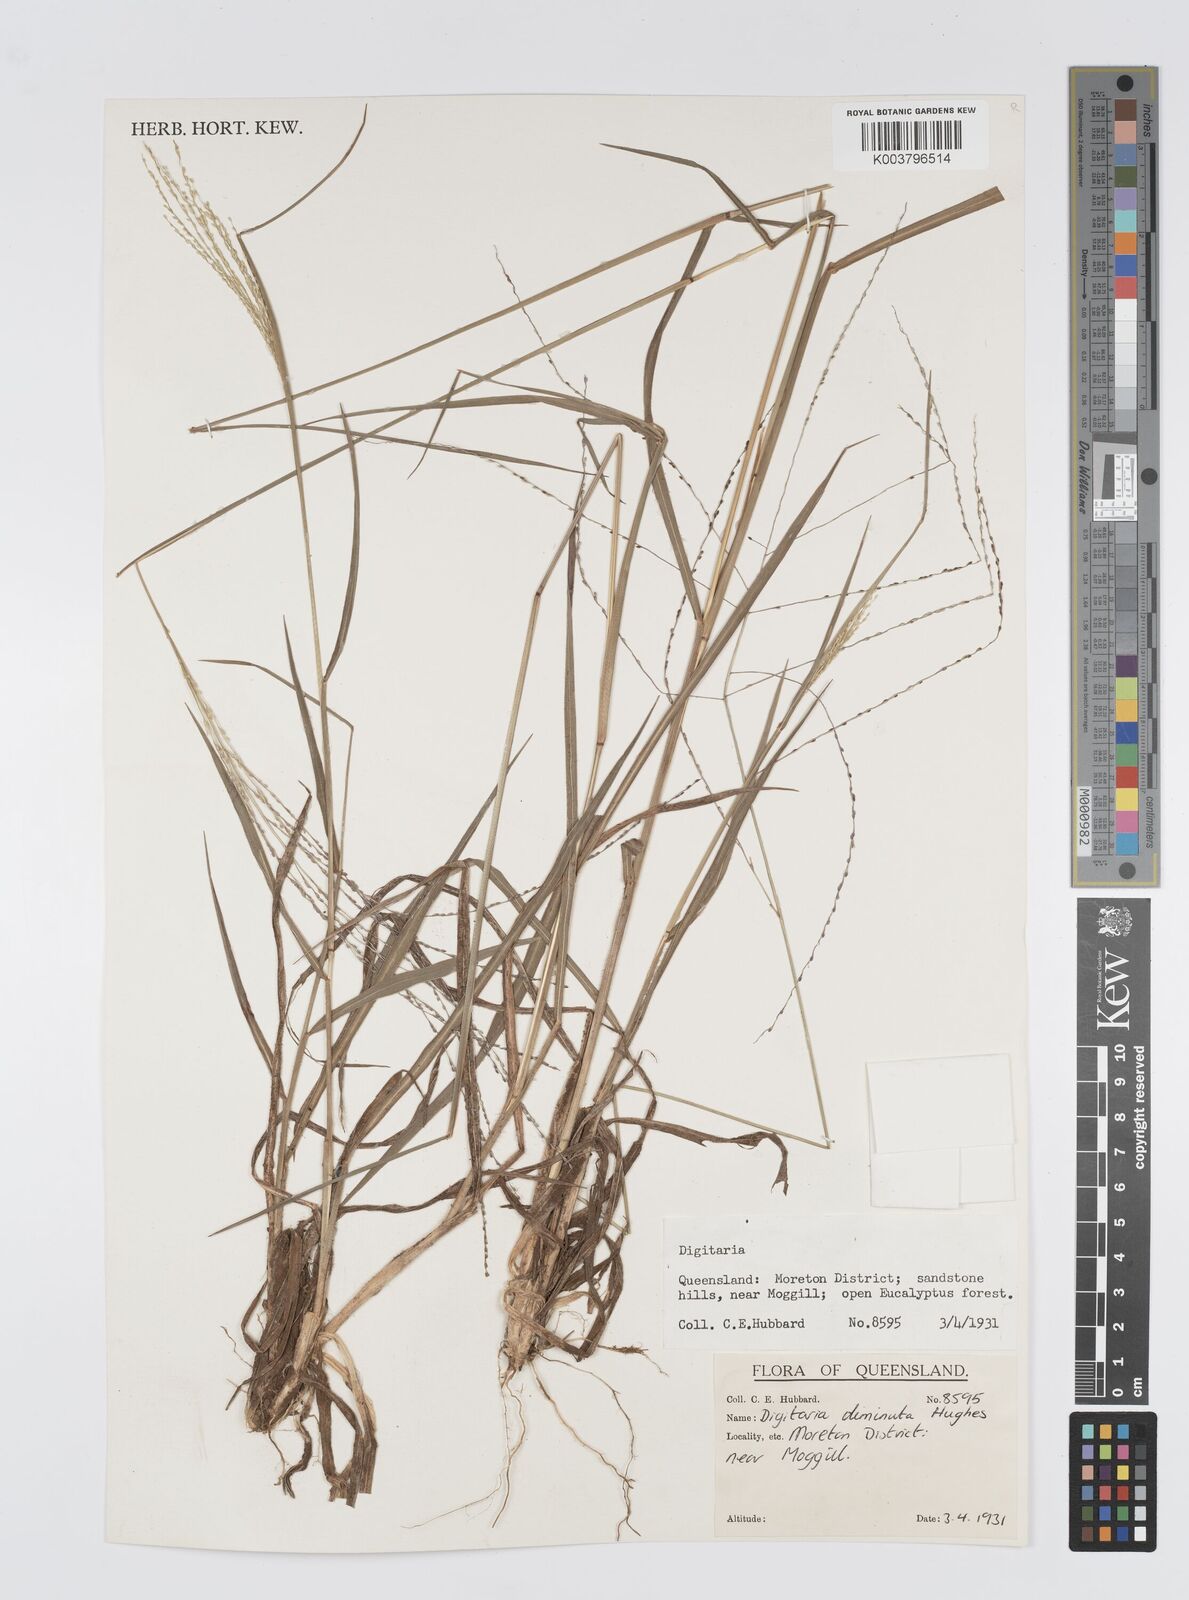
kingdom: Plantae
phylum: Tracheophyta
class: Liliopsida
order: Poales
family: Poaceae
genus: Digitaria
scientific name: Digitaria breviglumis
